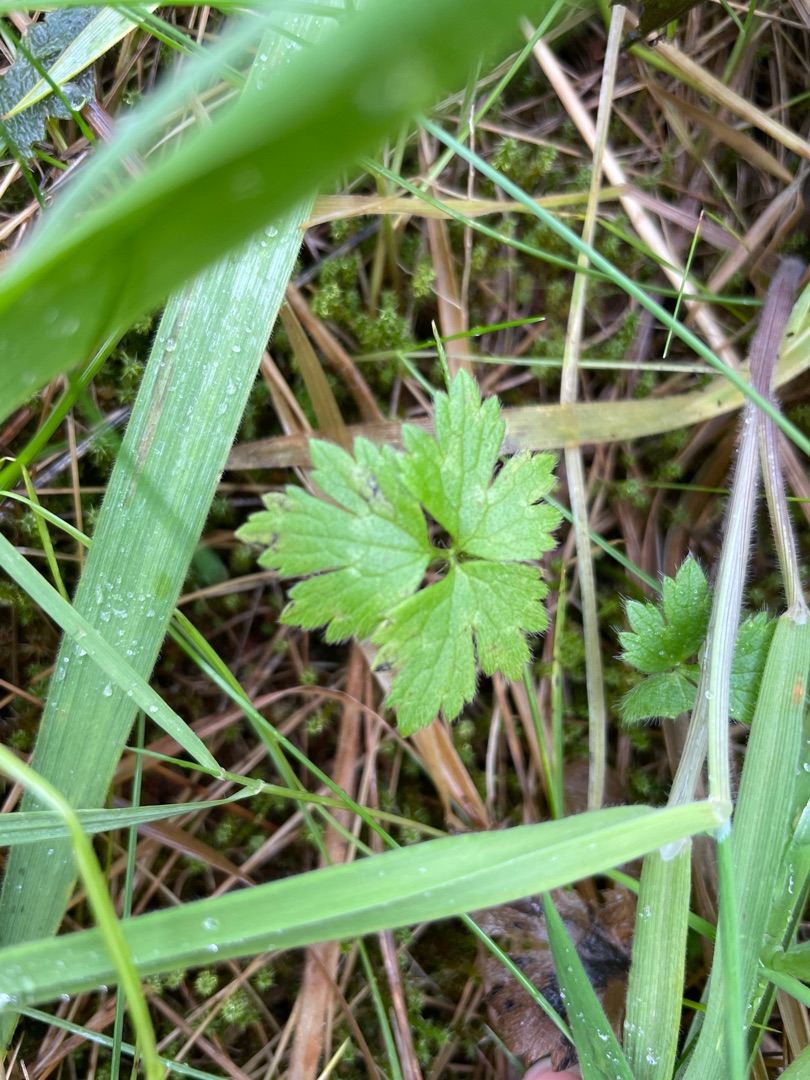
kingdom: Plantae
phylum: Tracheophyta
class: Magnoliopsida
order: Ranunculales
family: Ranunculaceae
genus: Ranunculus
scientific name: Ranunculus repens
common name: Lav ranunkel
